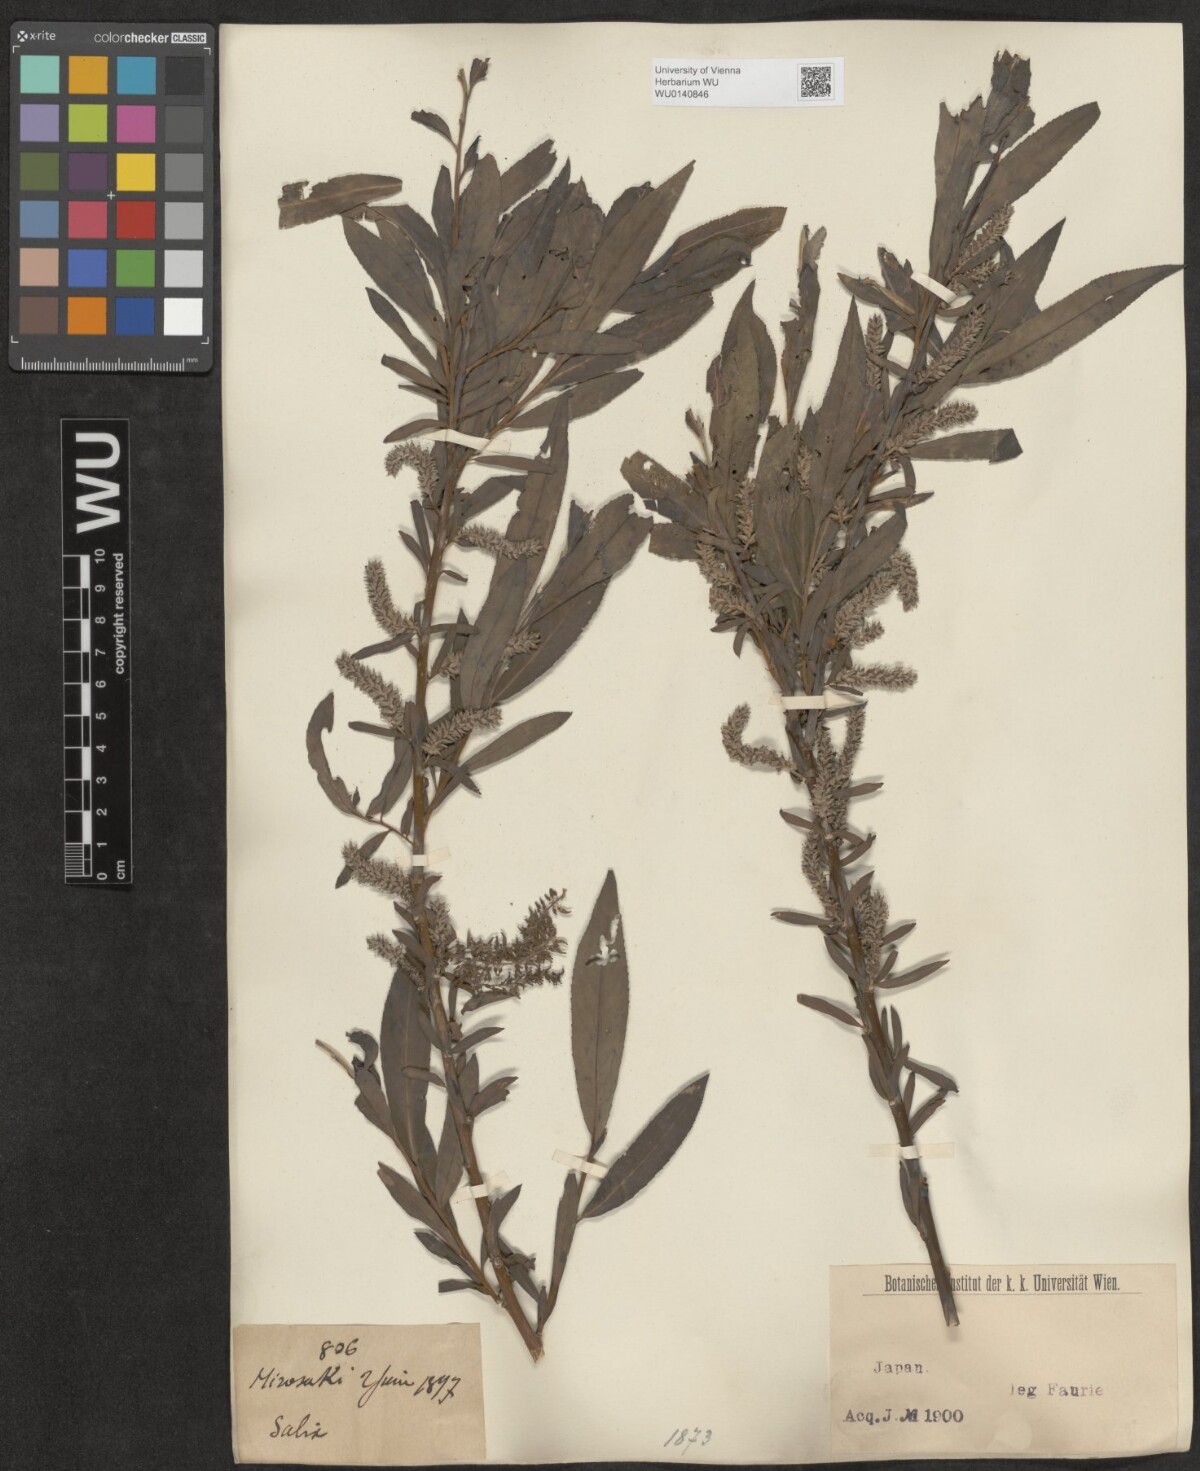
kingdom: Plantae
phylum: Tracheophyta
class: Magnoliopsida
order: Malpighiales
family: Salicaceae
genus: Salix
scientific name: Salix
